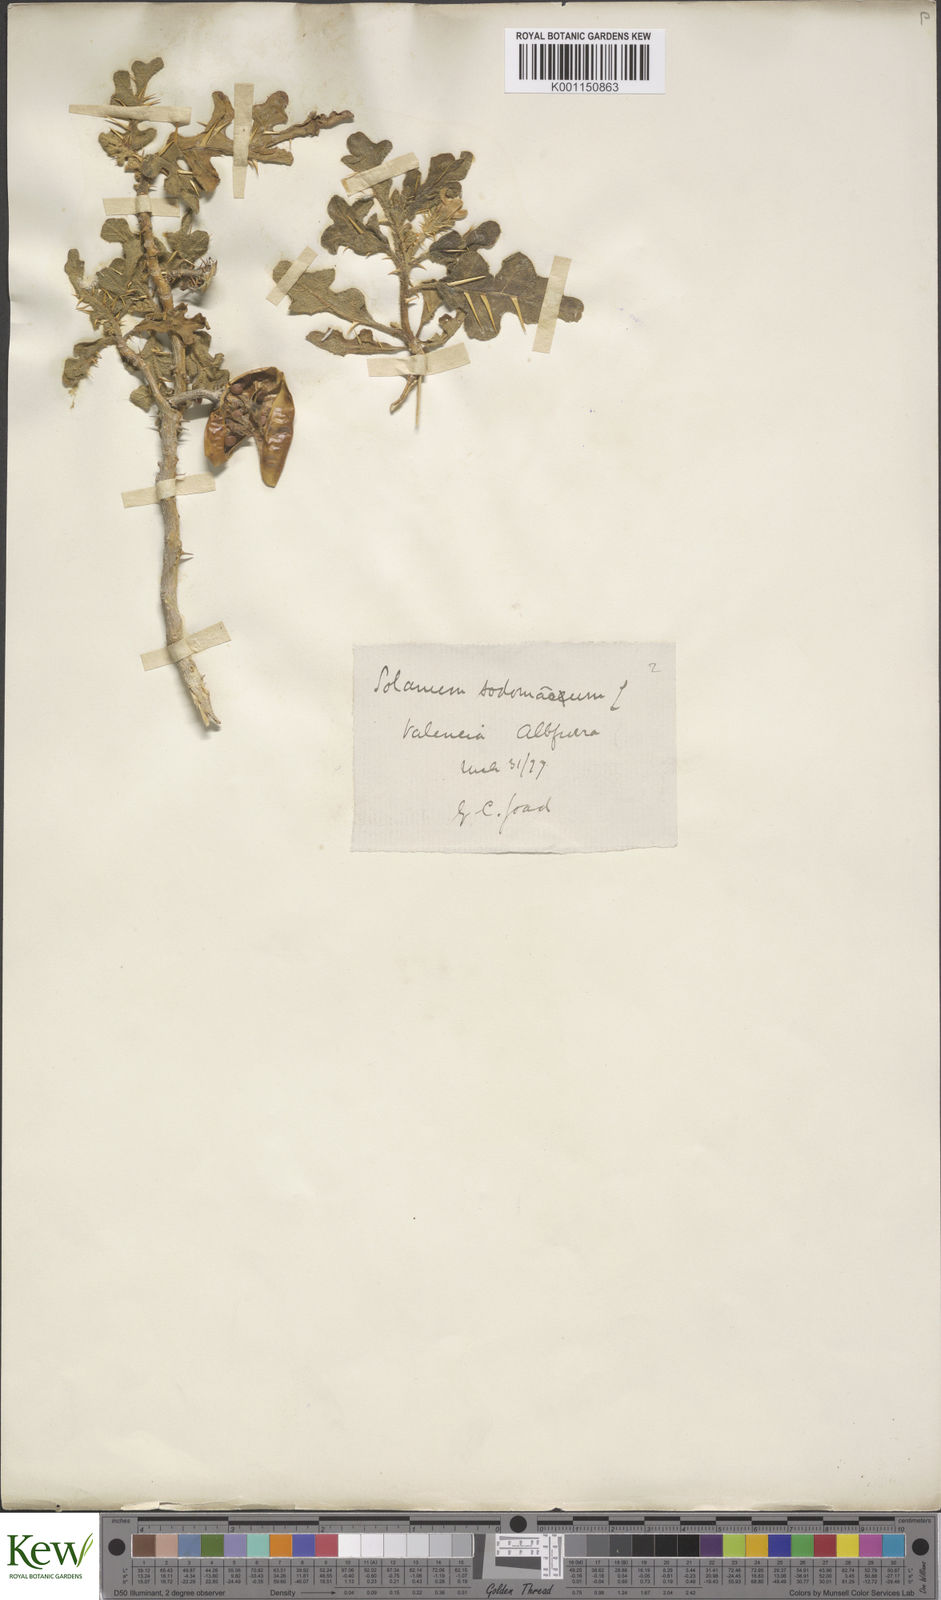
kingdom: Plantae
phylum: Tracheophyta
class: Magnoliopsida
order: Solanales
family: Solanaceae
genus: Solanum
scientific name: Solanum anguivi
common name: Forest bitterberry
